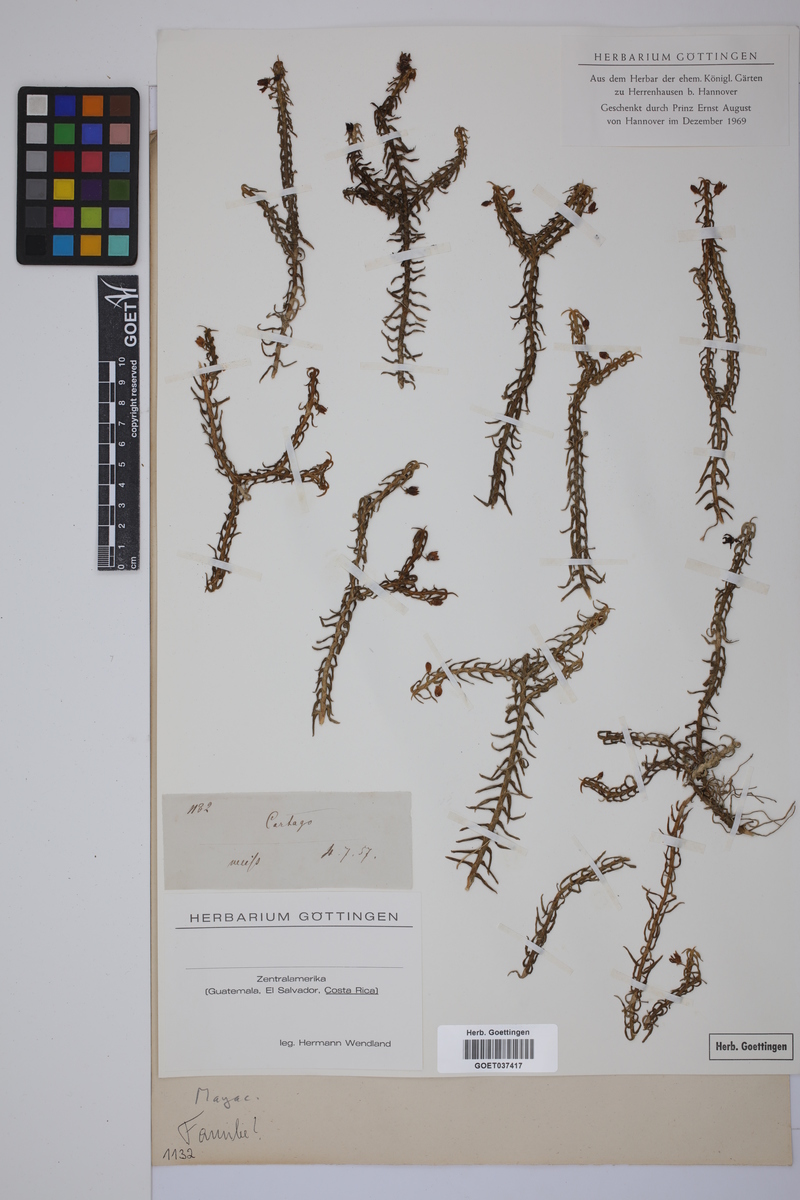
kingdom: Plantae
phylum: Tracheophyta
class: Liliopsida
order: Poales
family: Mayacaceae
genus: Mayaca
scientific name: Mayaca
